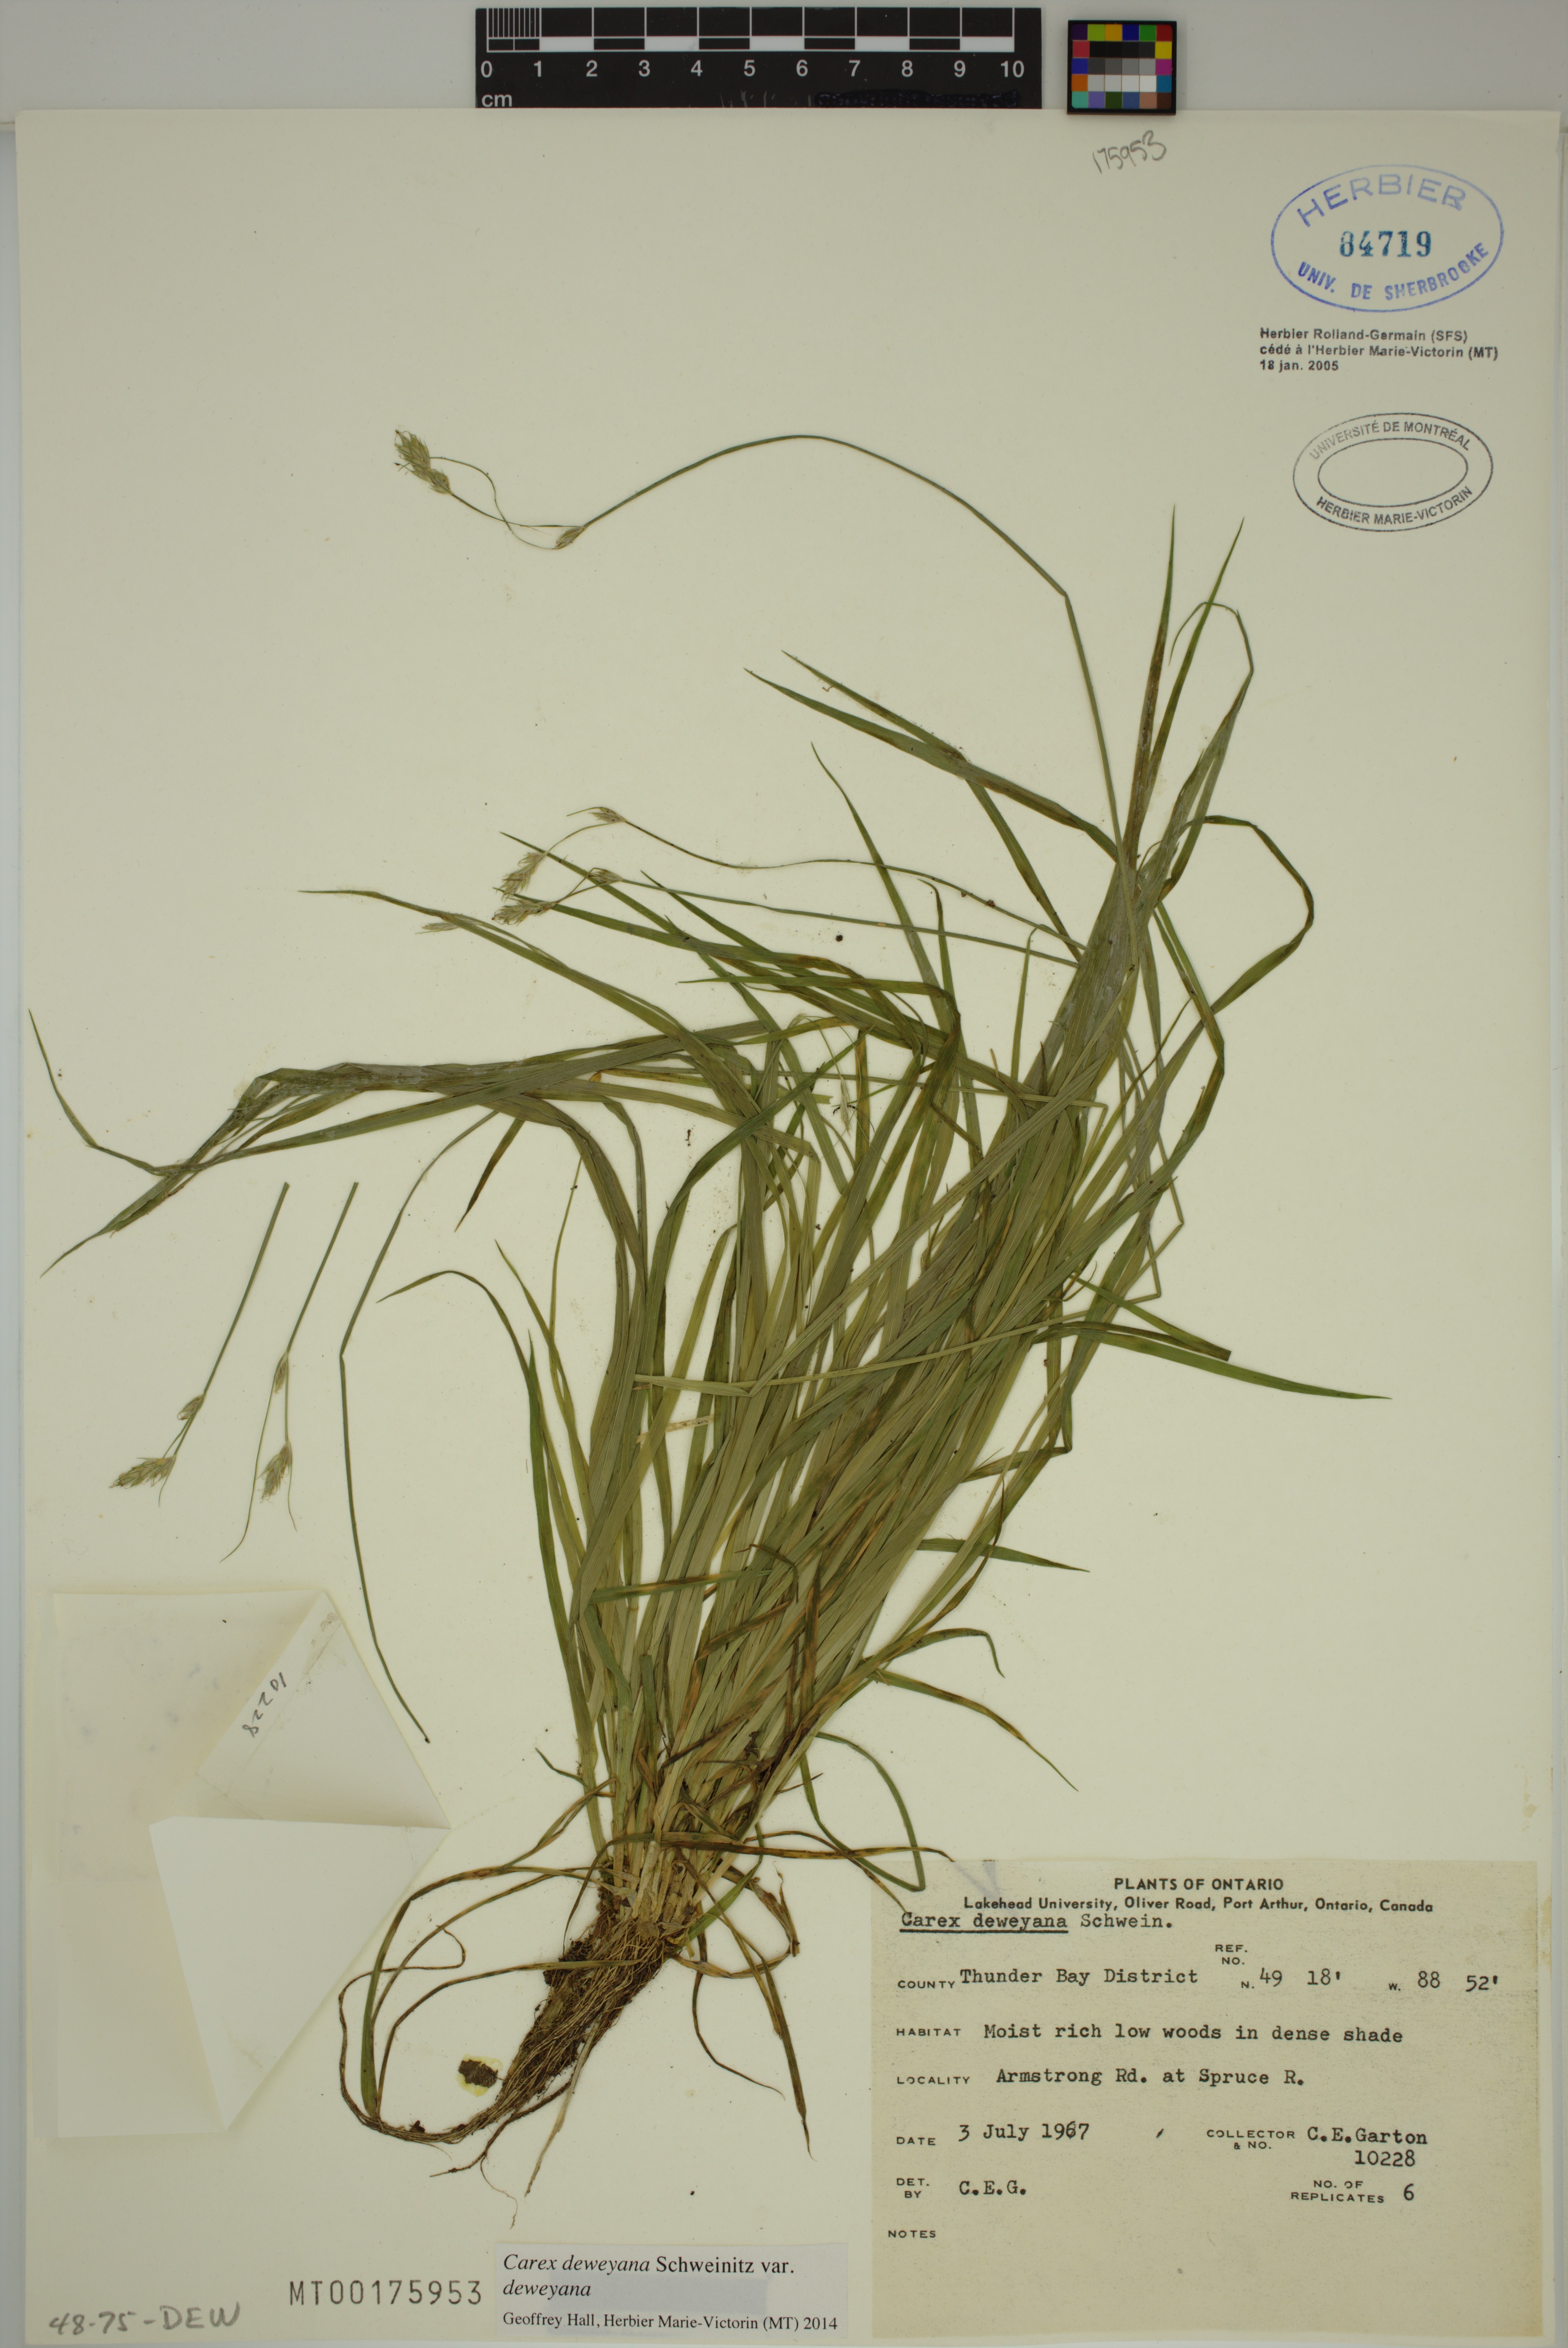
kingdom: Plantae
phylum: Tracheophyta
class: Liliopsida
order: Poales
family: Cyperaceae
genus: Carex
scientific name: Carex deweyana
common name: Dewey's sedge
